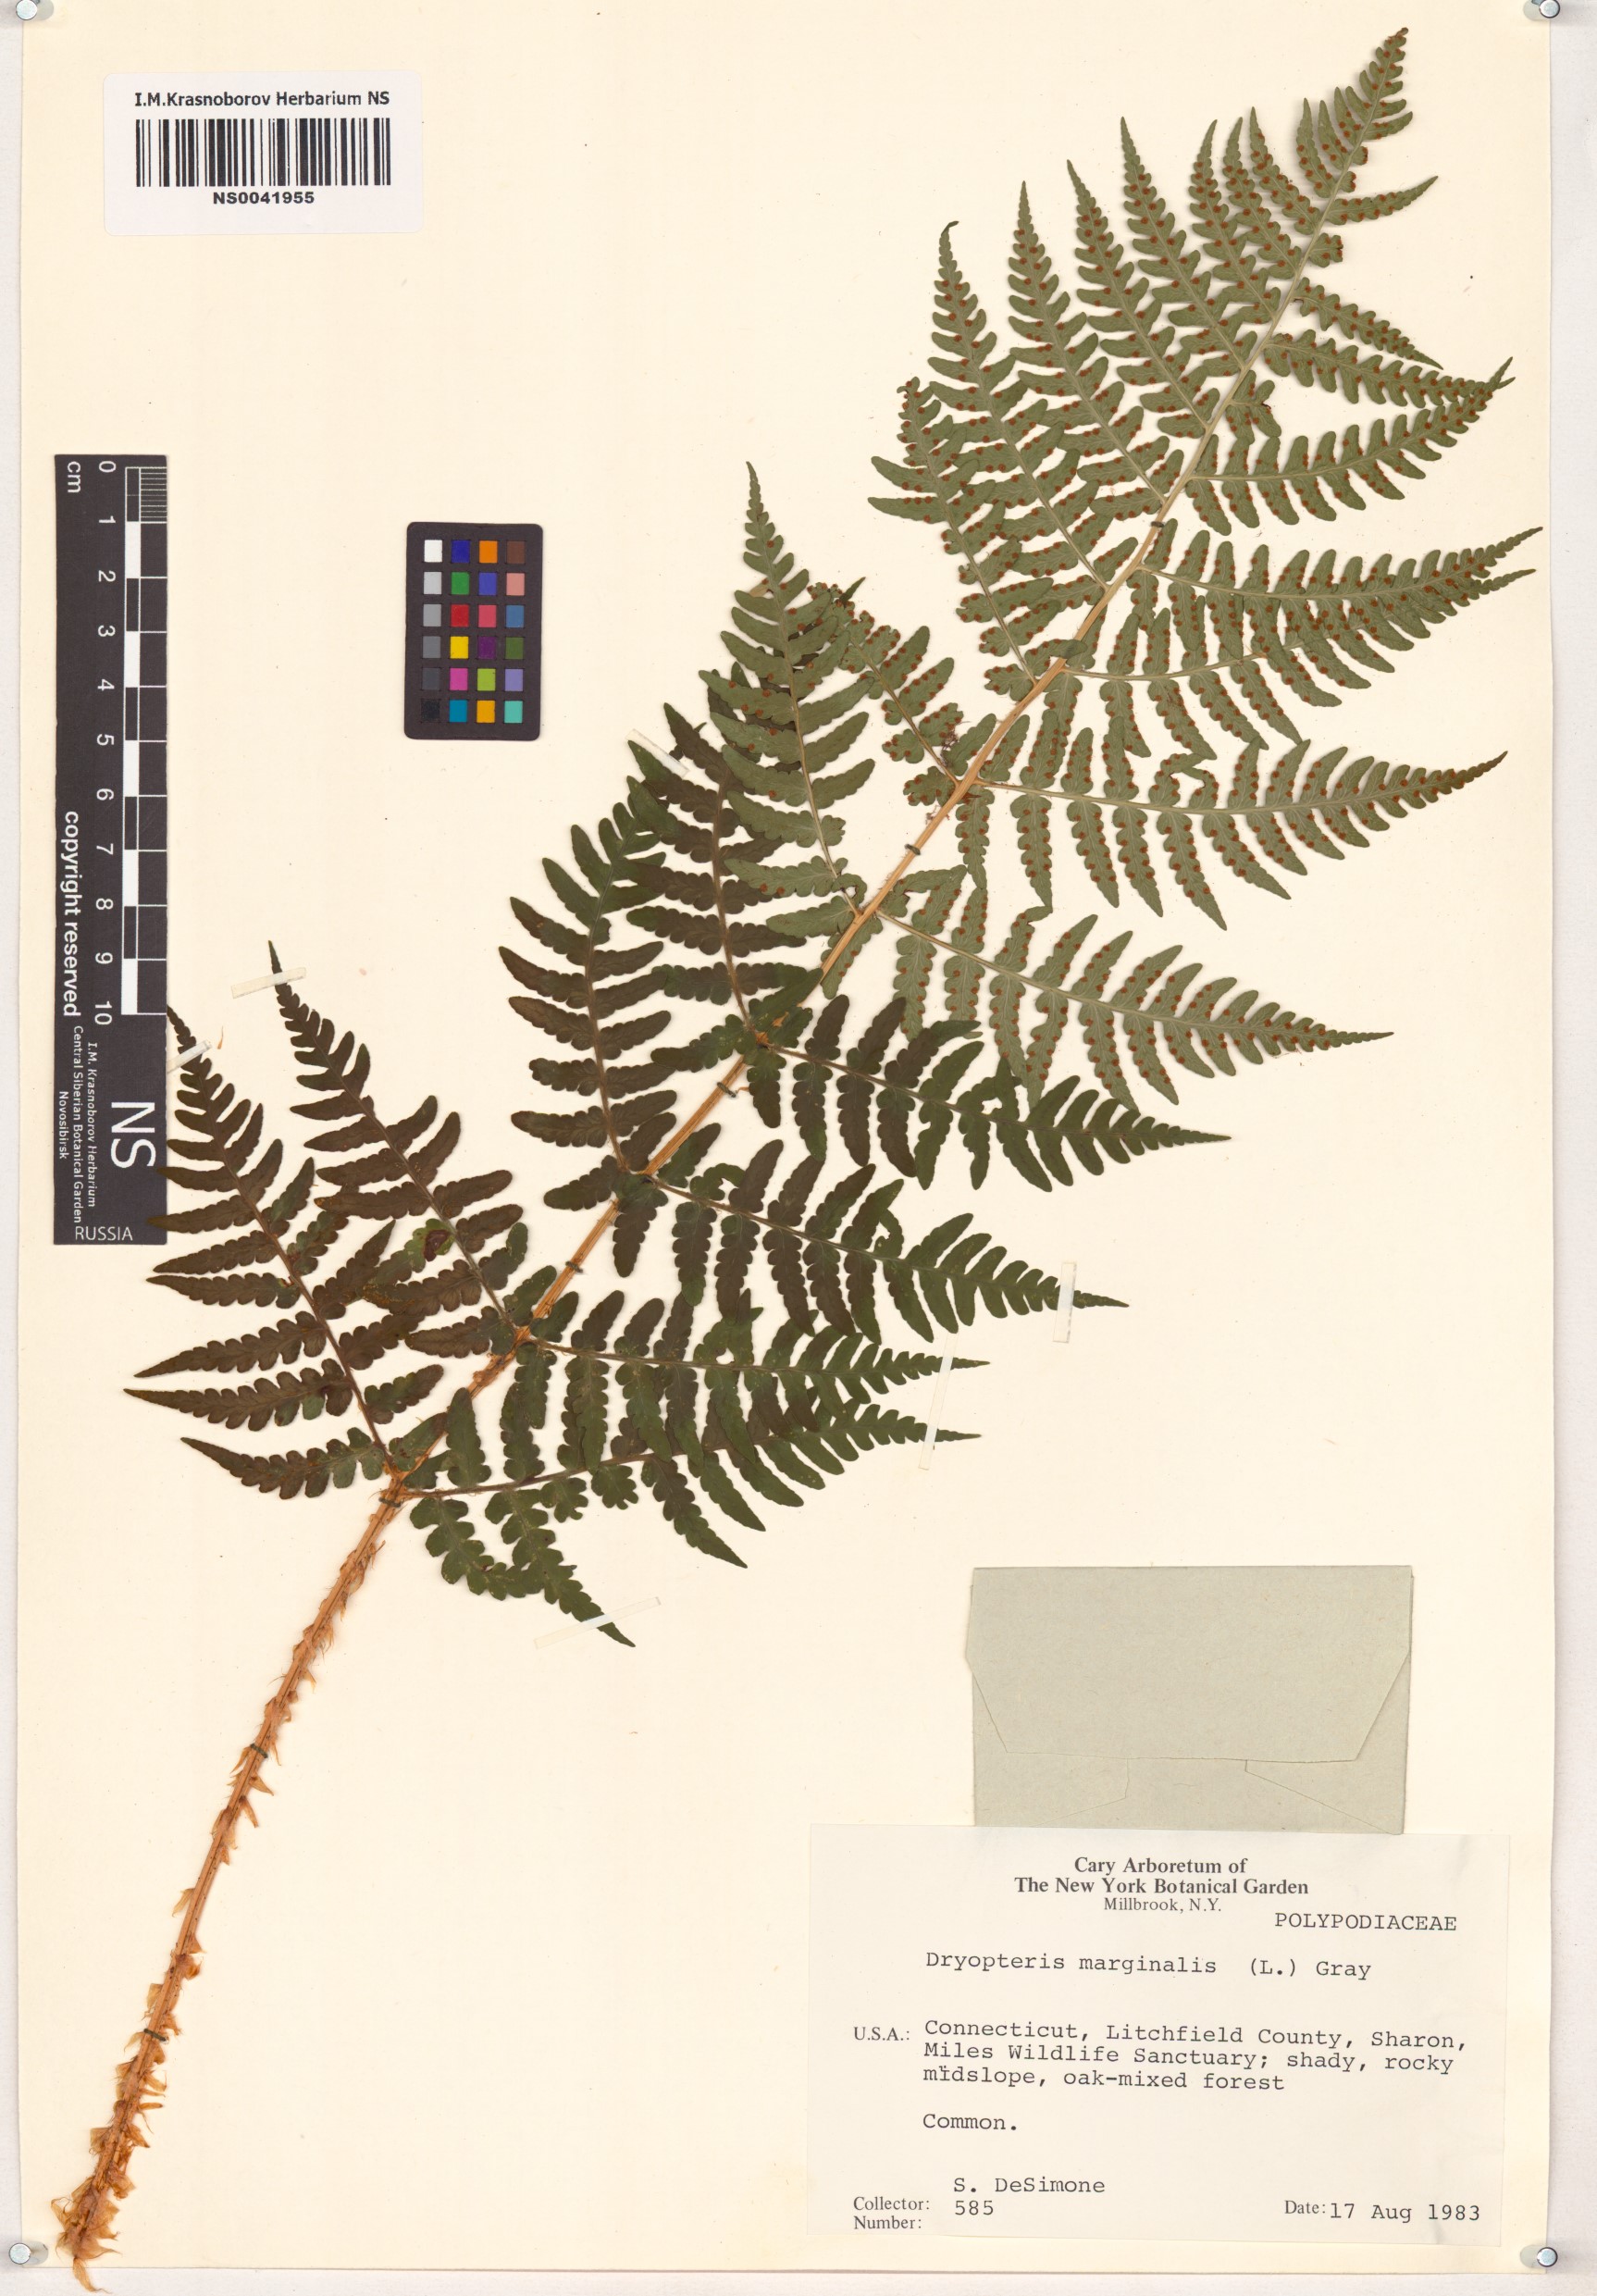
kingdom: Plantae
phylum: Tracheophyta
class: Polypodiopsida
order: Polypodiales
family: Dryopteridaceae
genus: Dryopteris
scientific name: Dryopteris marginalis
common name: Marginal wood fern
